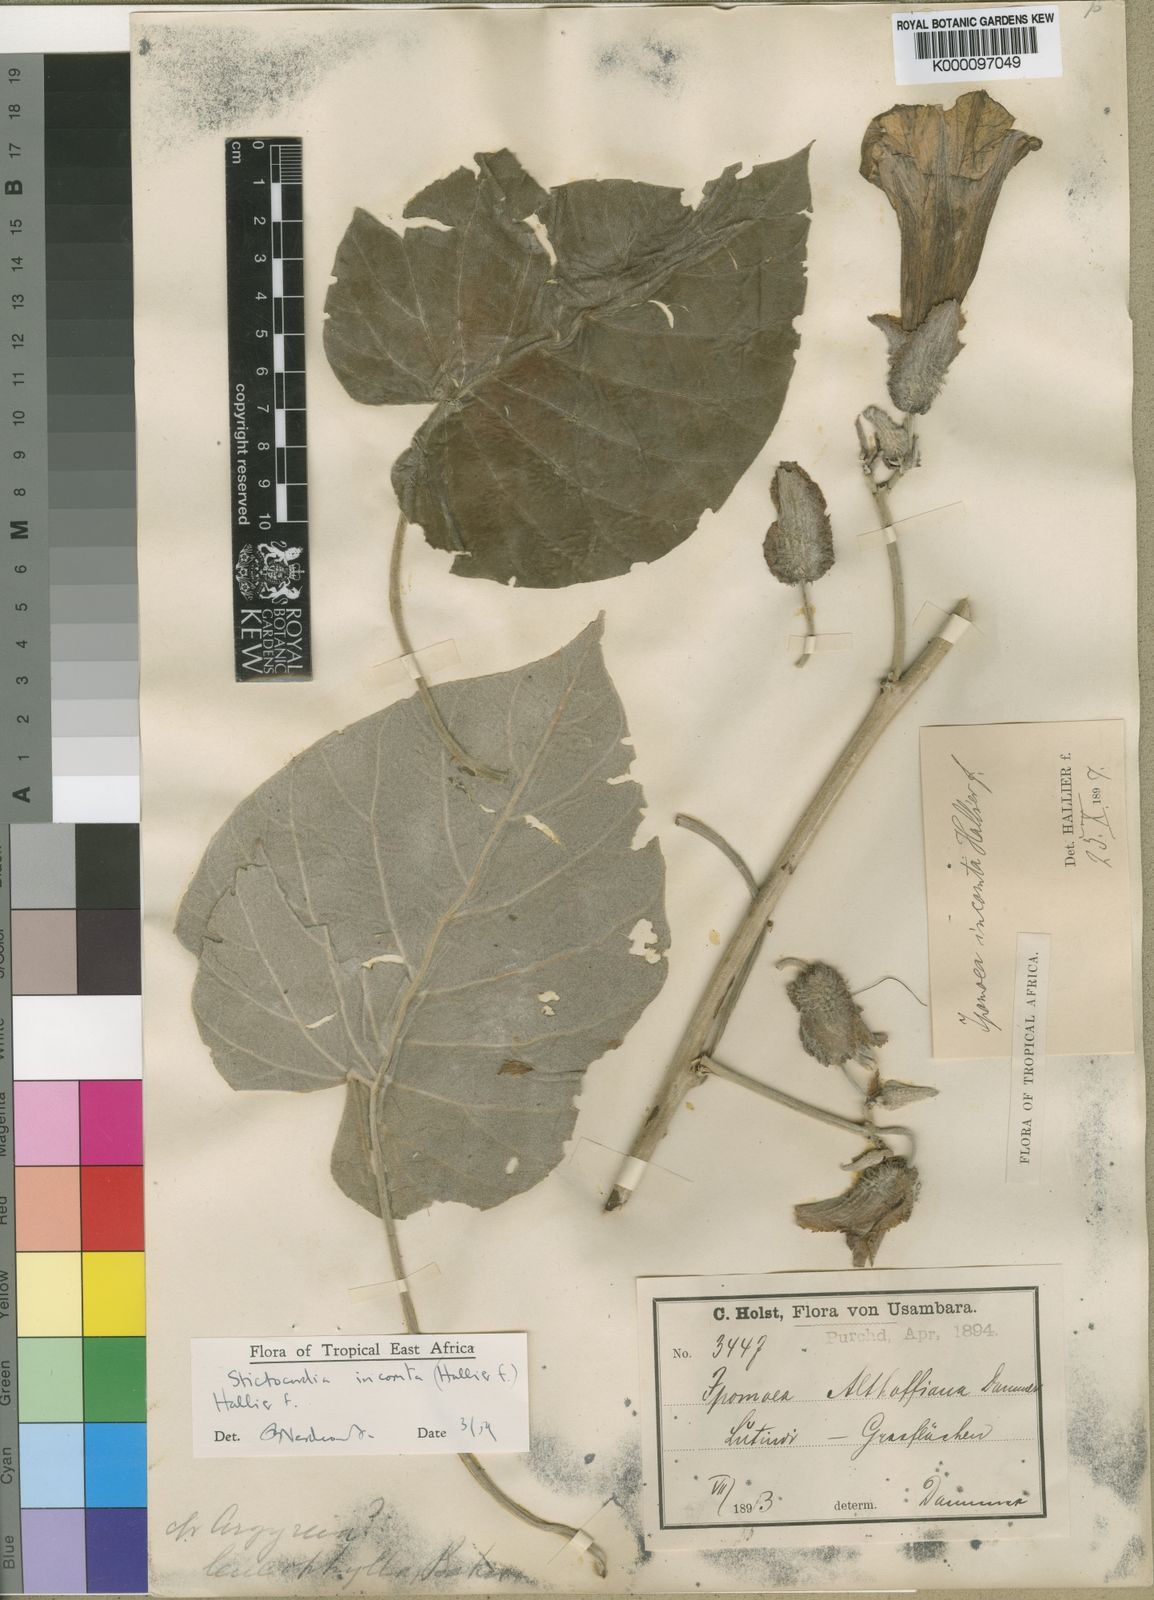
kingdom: Plantae
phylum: Tracheophyta
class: Magnoliopsida
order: Solanales
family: Convolvulaceae
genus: Stictocardia
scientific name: Stictocardia incomta
